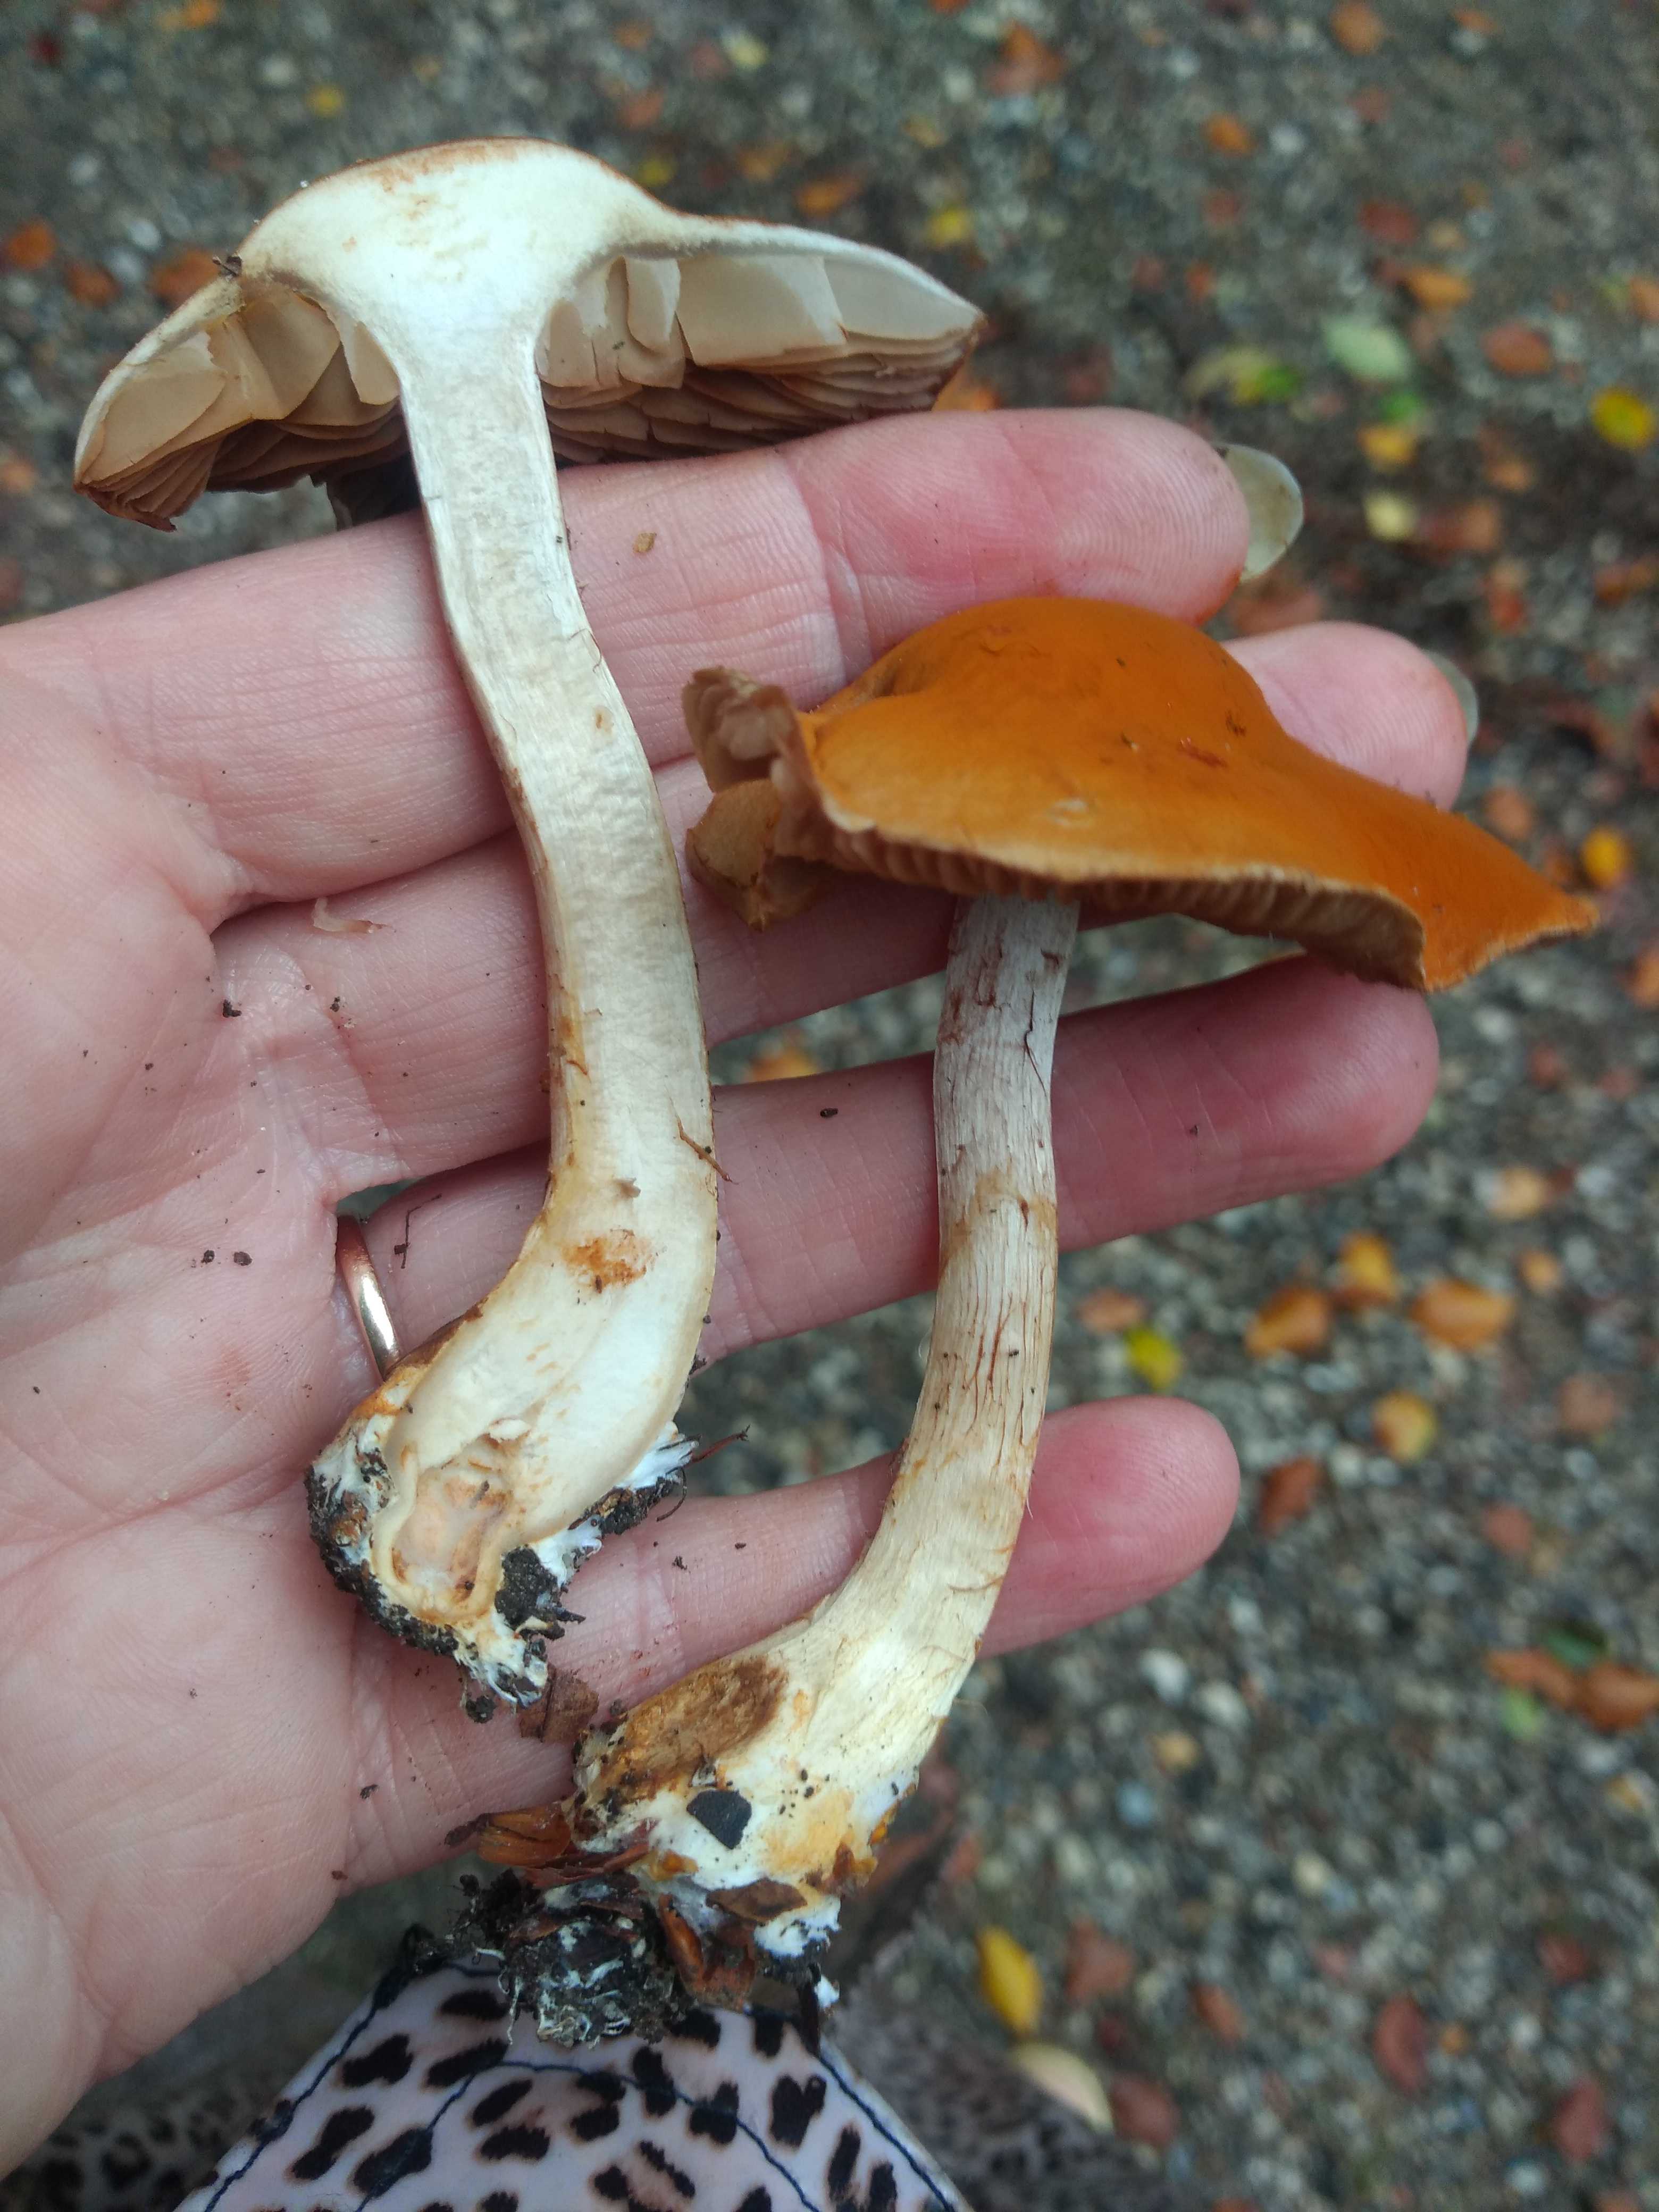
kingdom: Fungi
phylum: Basidiomycota
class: Agaricomycetes
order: Agaricales
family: Cortinariaceae
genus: Cortinarius
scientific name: Cortinarius
